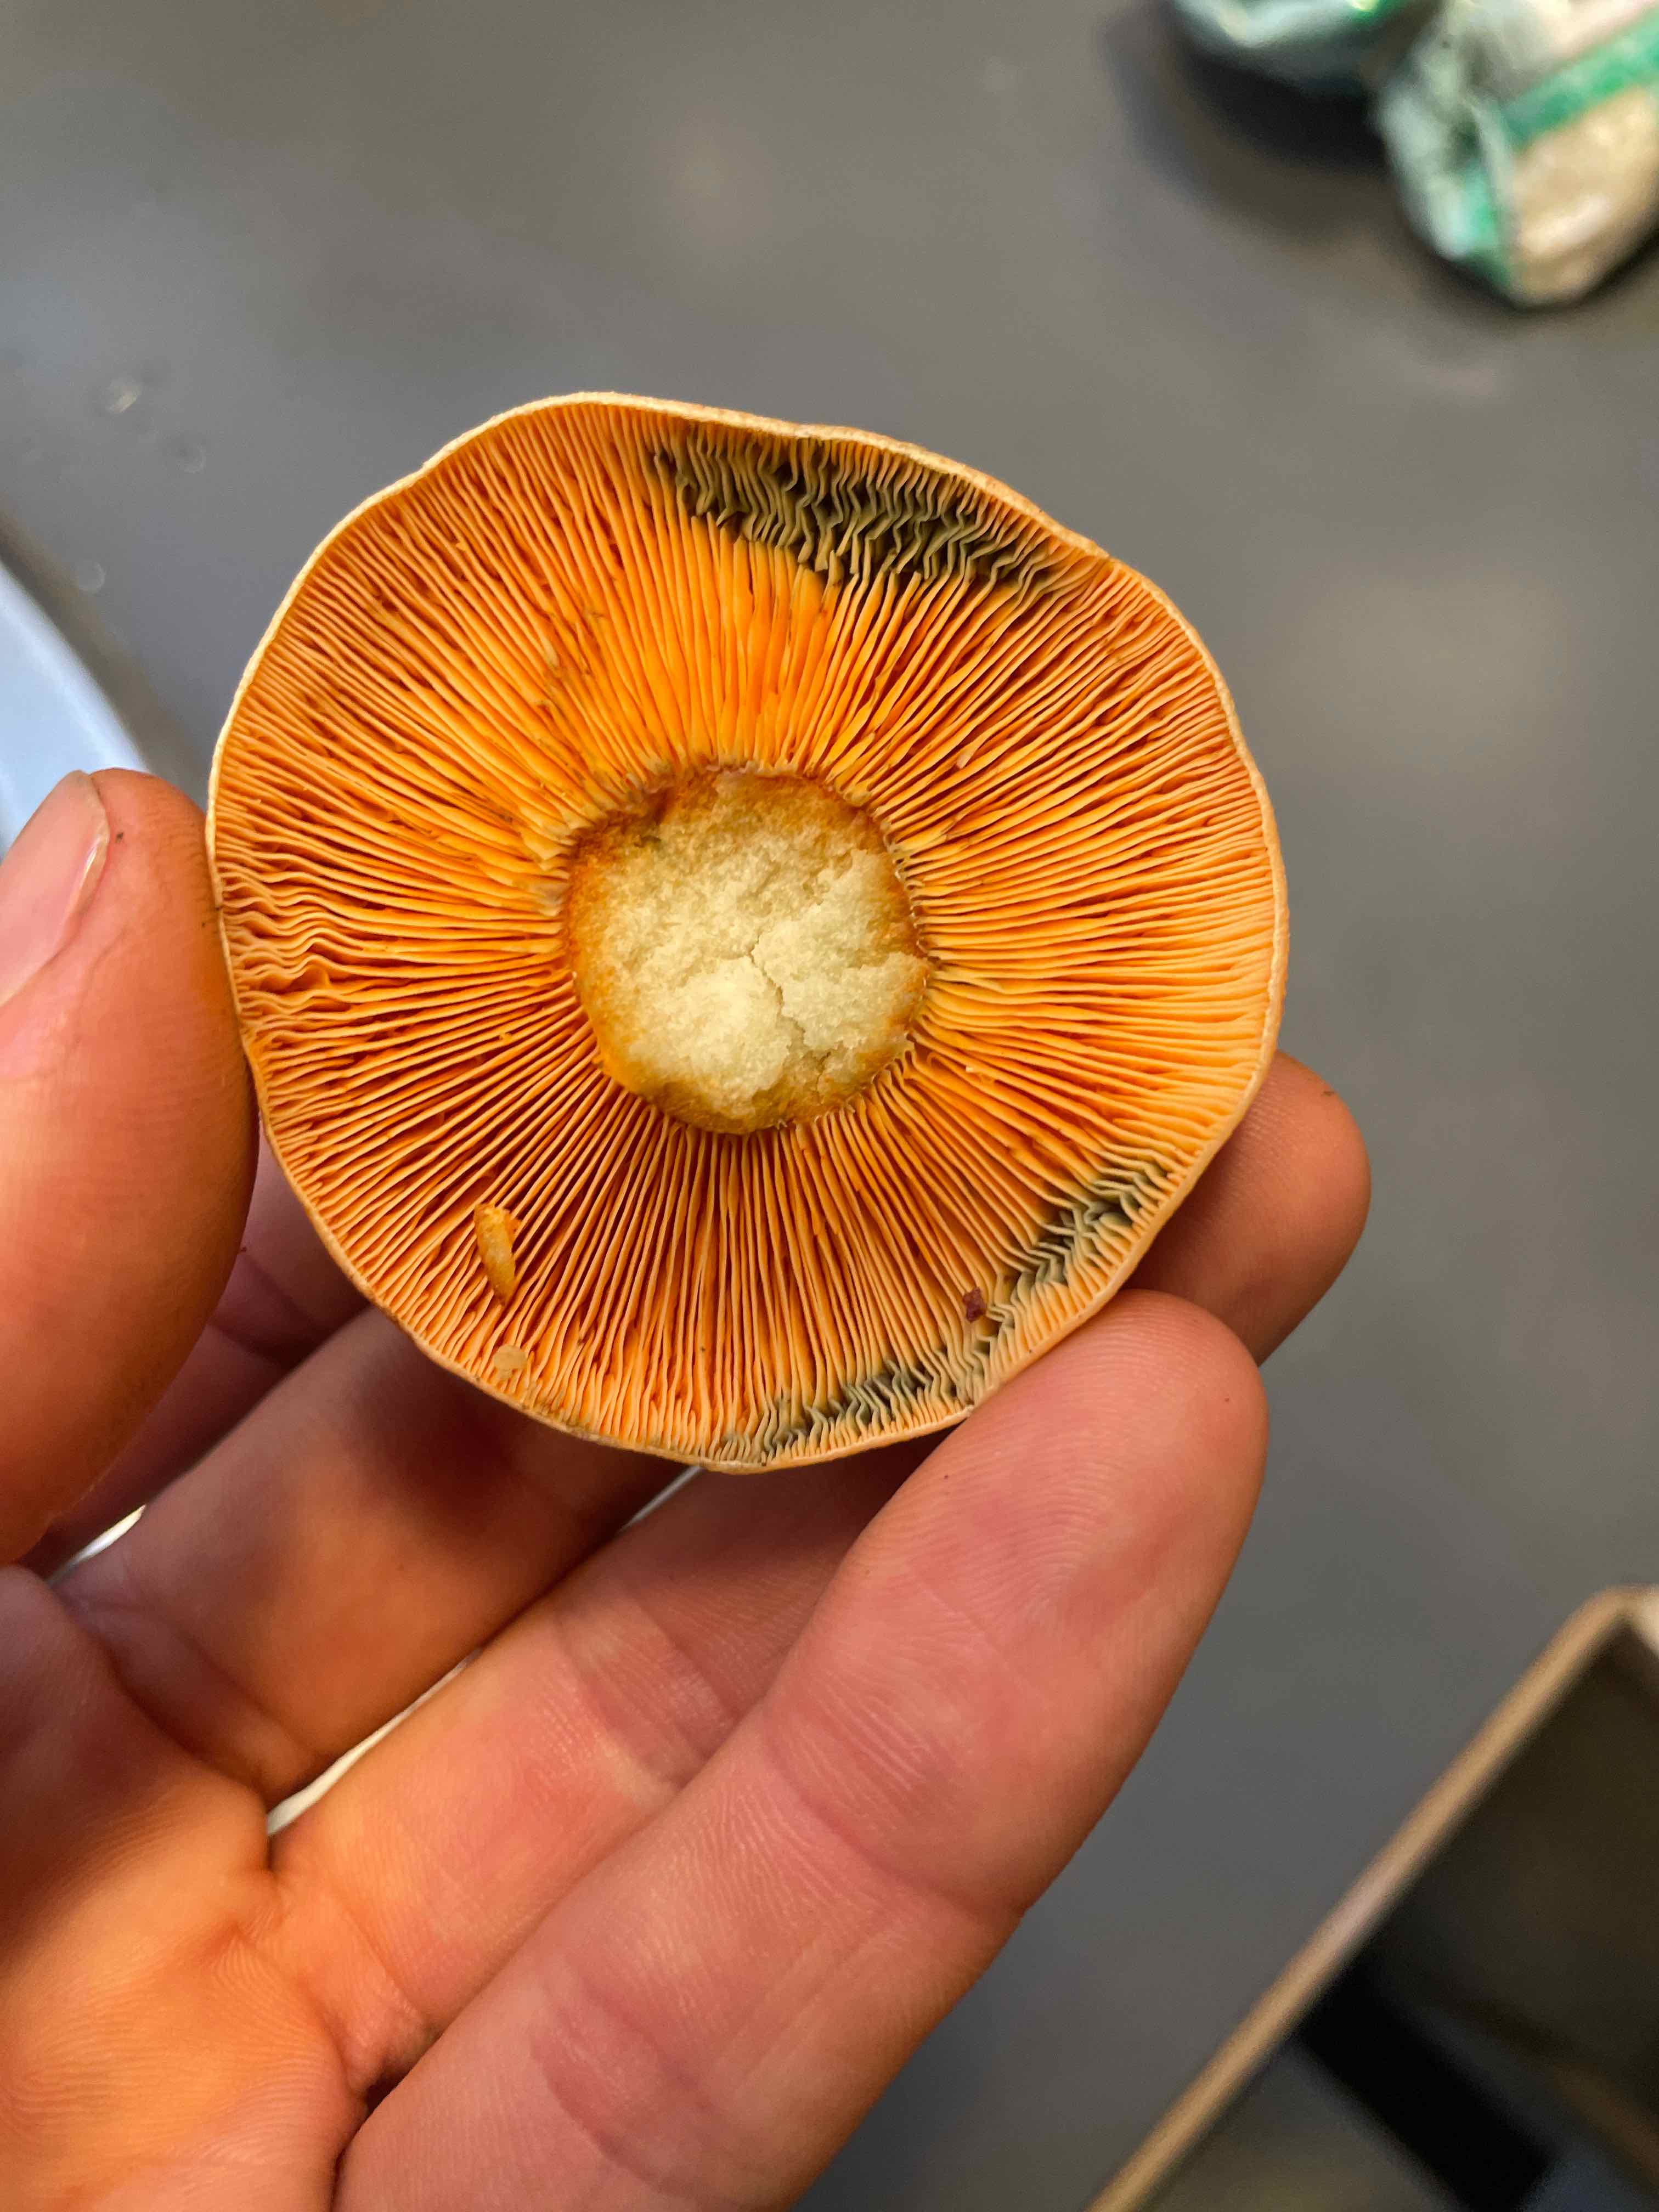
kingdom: Fungi
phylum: Basidiomycota
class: Agaricomycetes
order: Russulales
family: Russulaceae
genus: Lactarius
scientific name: Lactarius deterrimus
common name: gran-mælkehat
